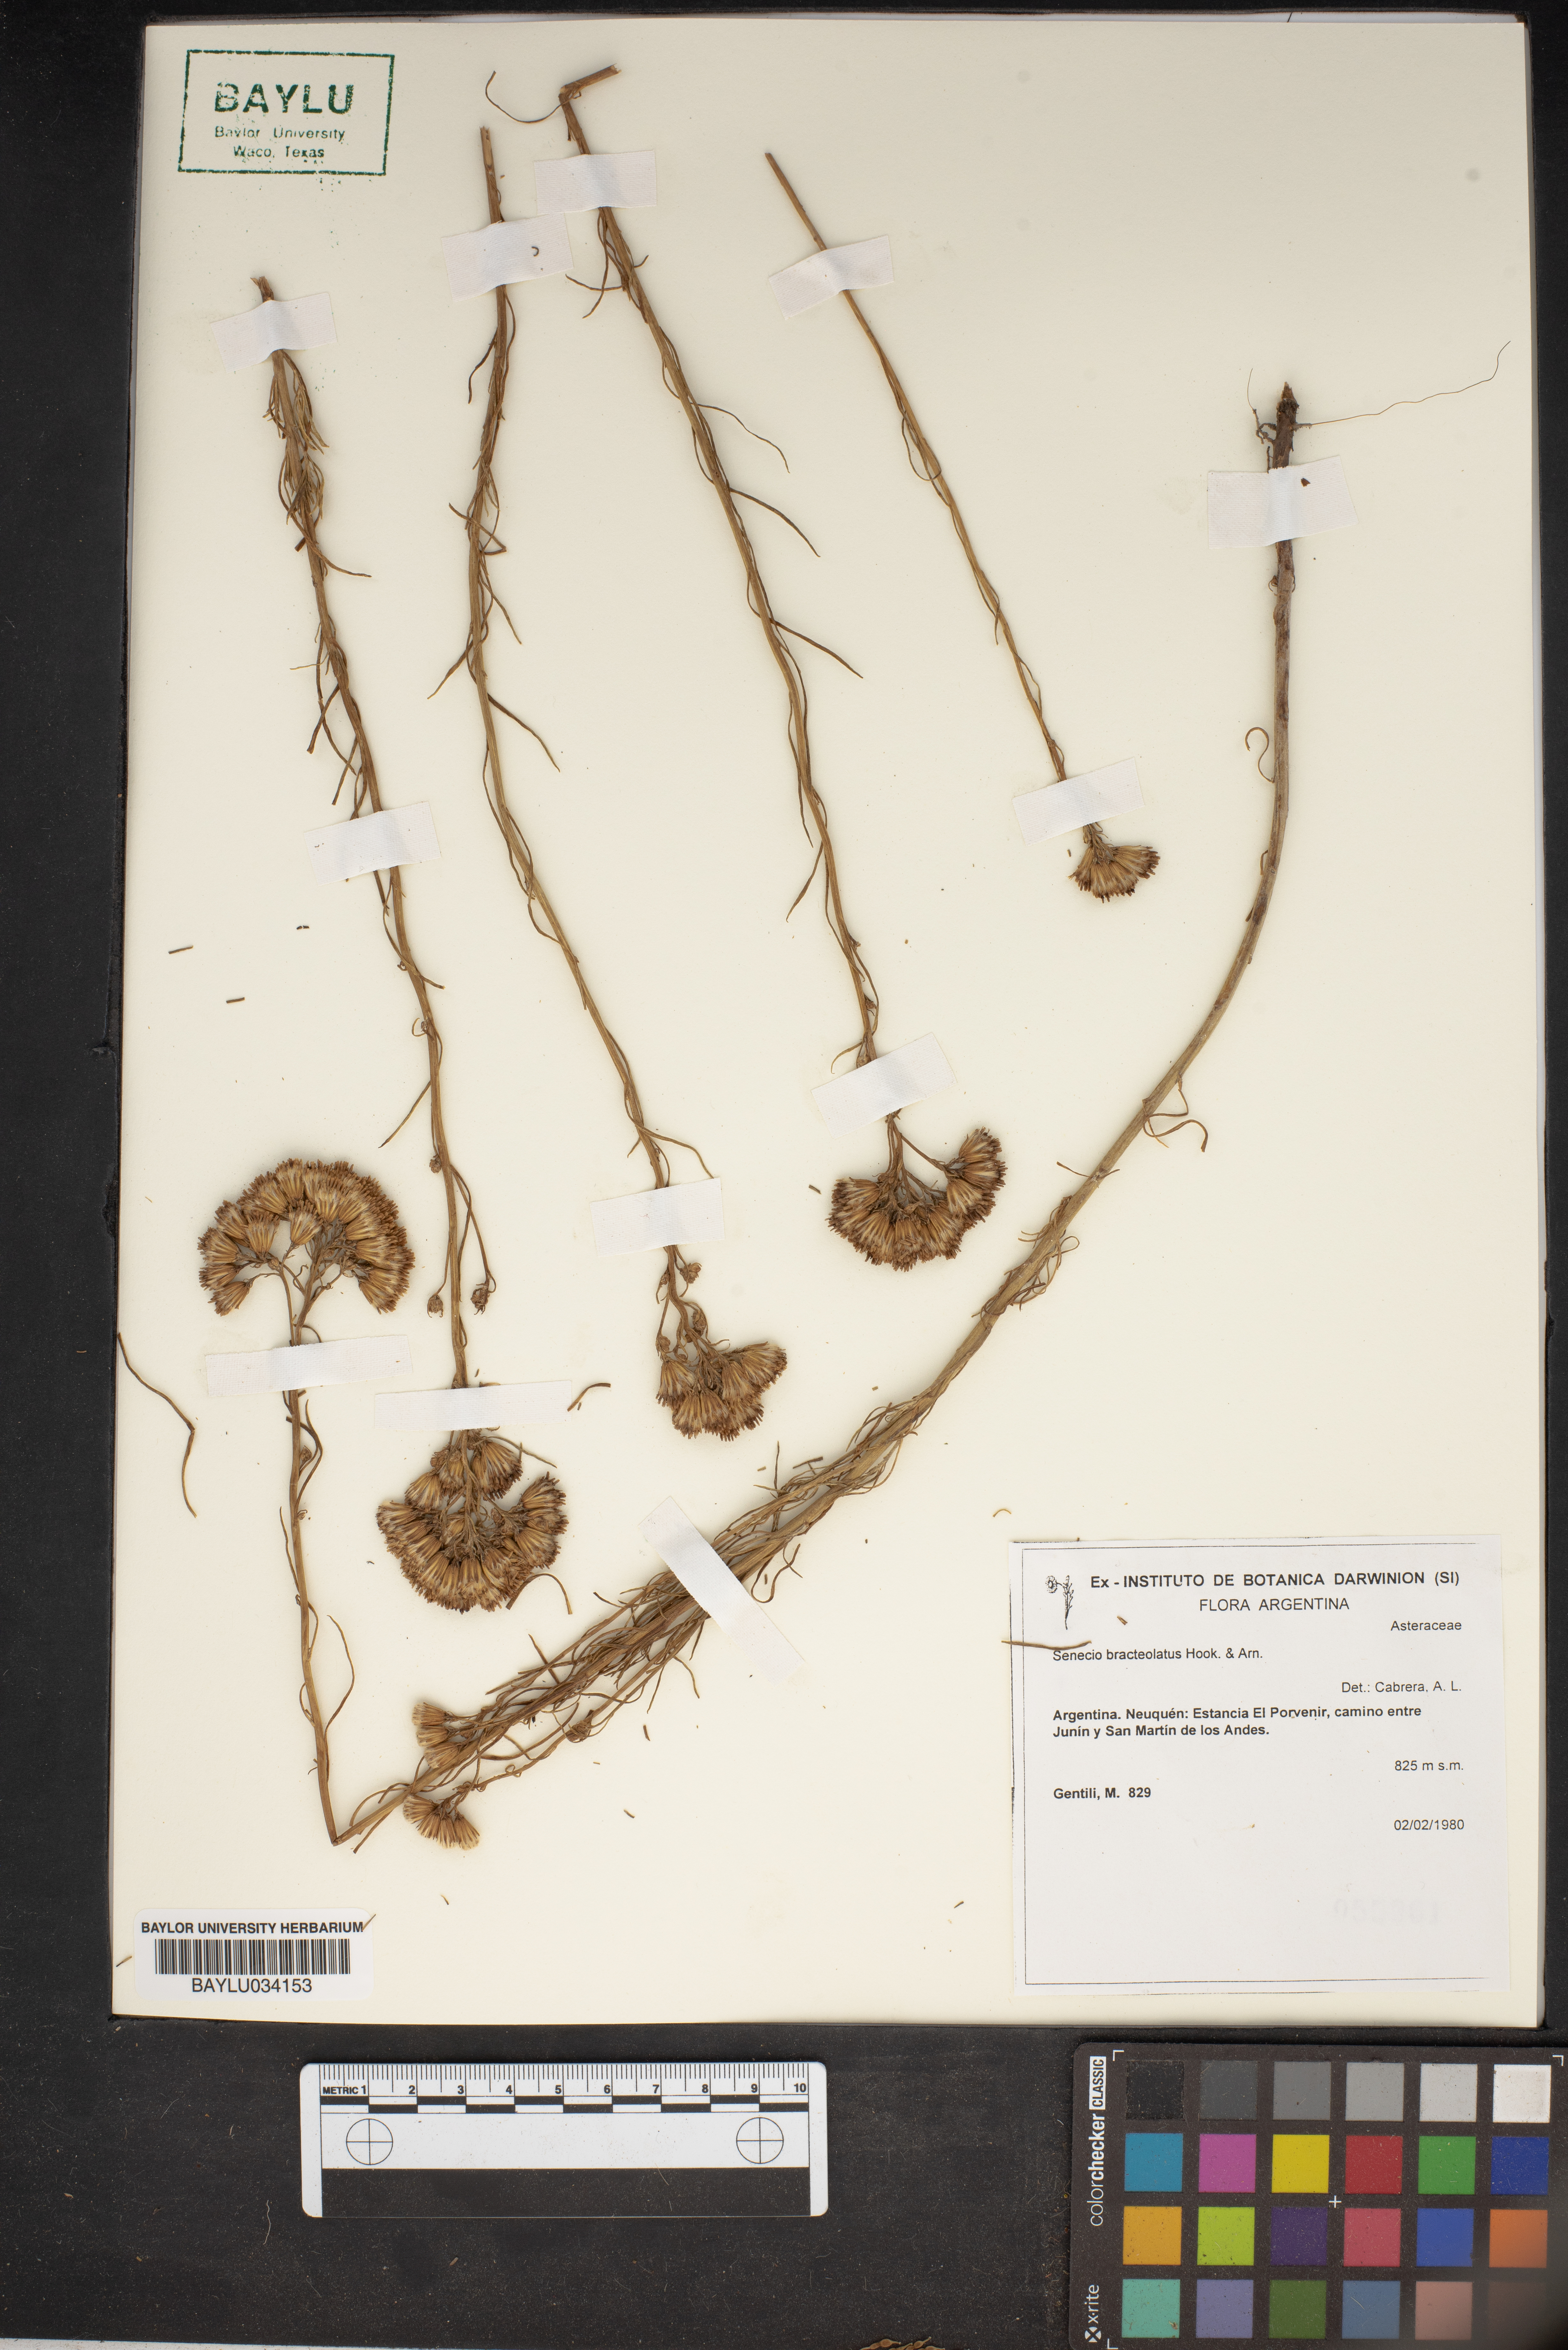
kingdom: Plantae
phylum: Tracheophyta
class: Magnoliopsida
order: Asterales
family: Asteraceae
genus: Senecio
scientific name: Senecio proteus
